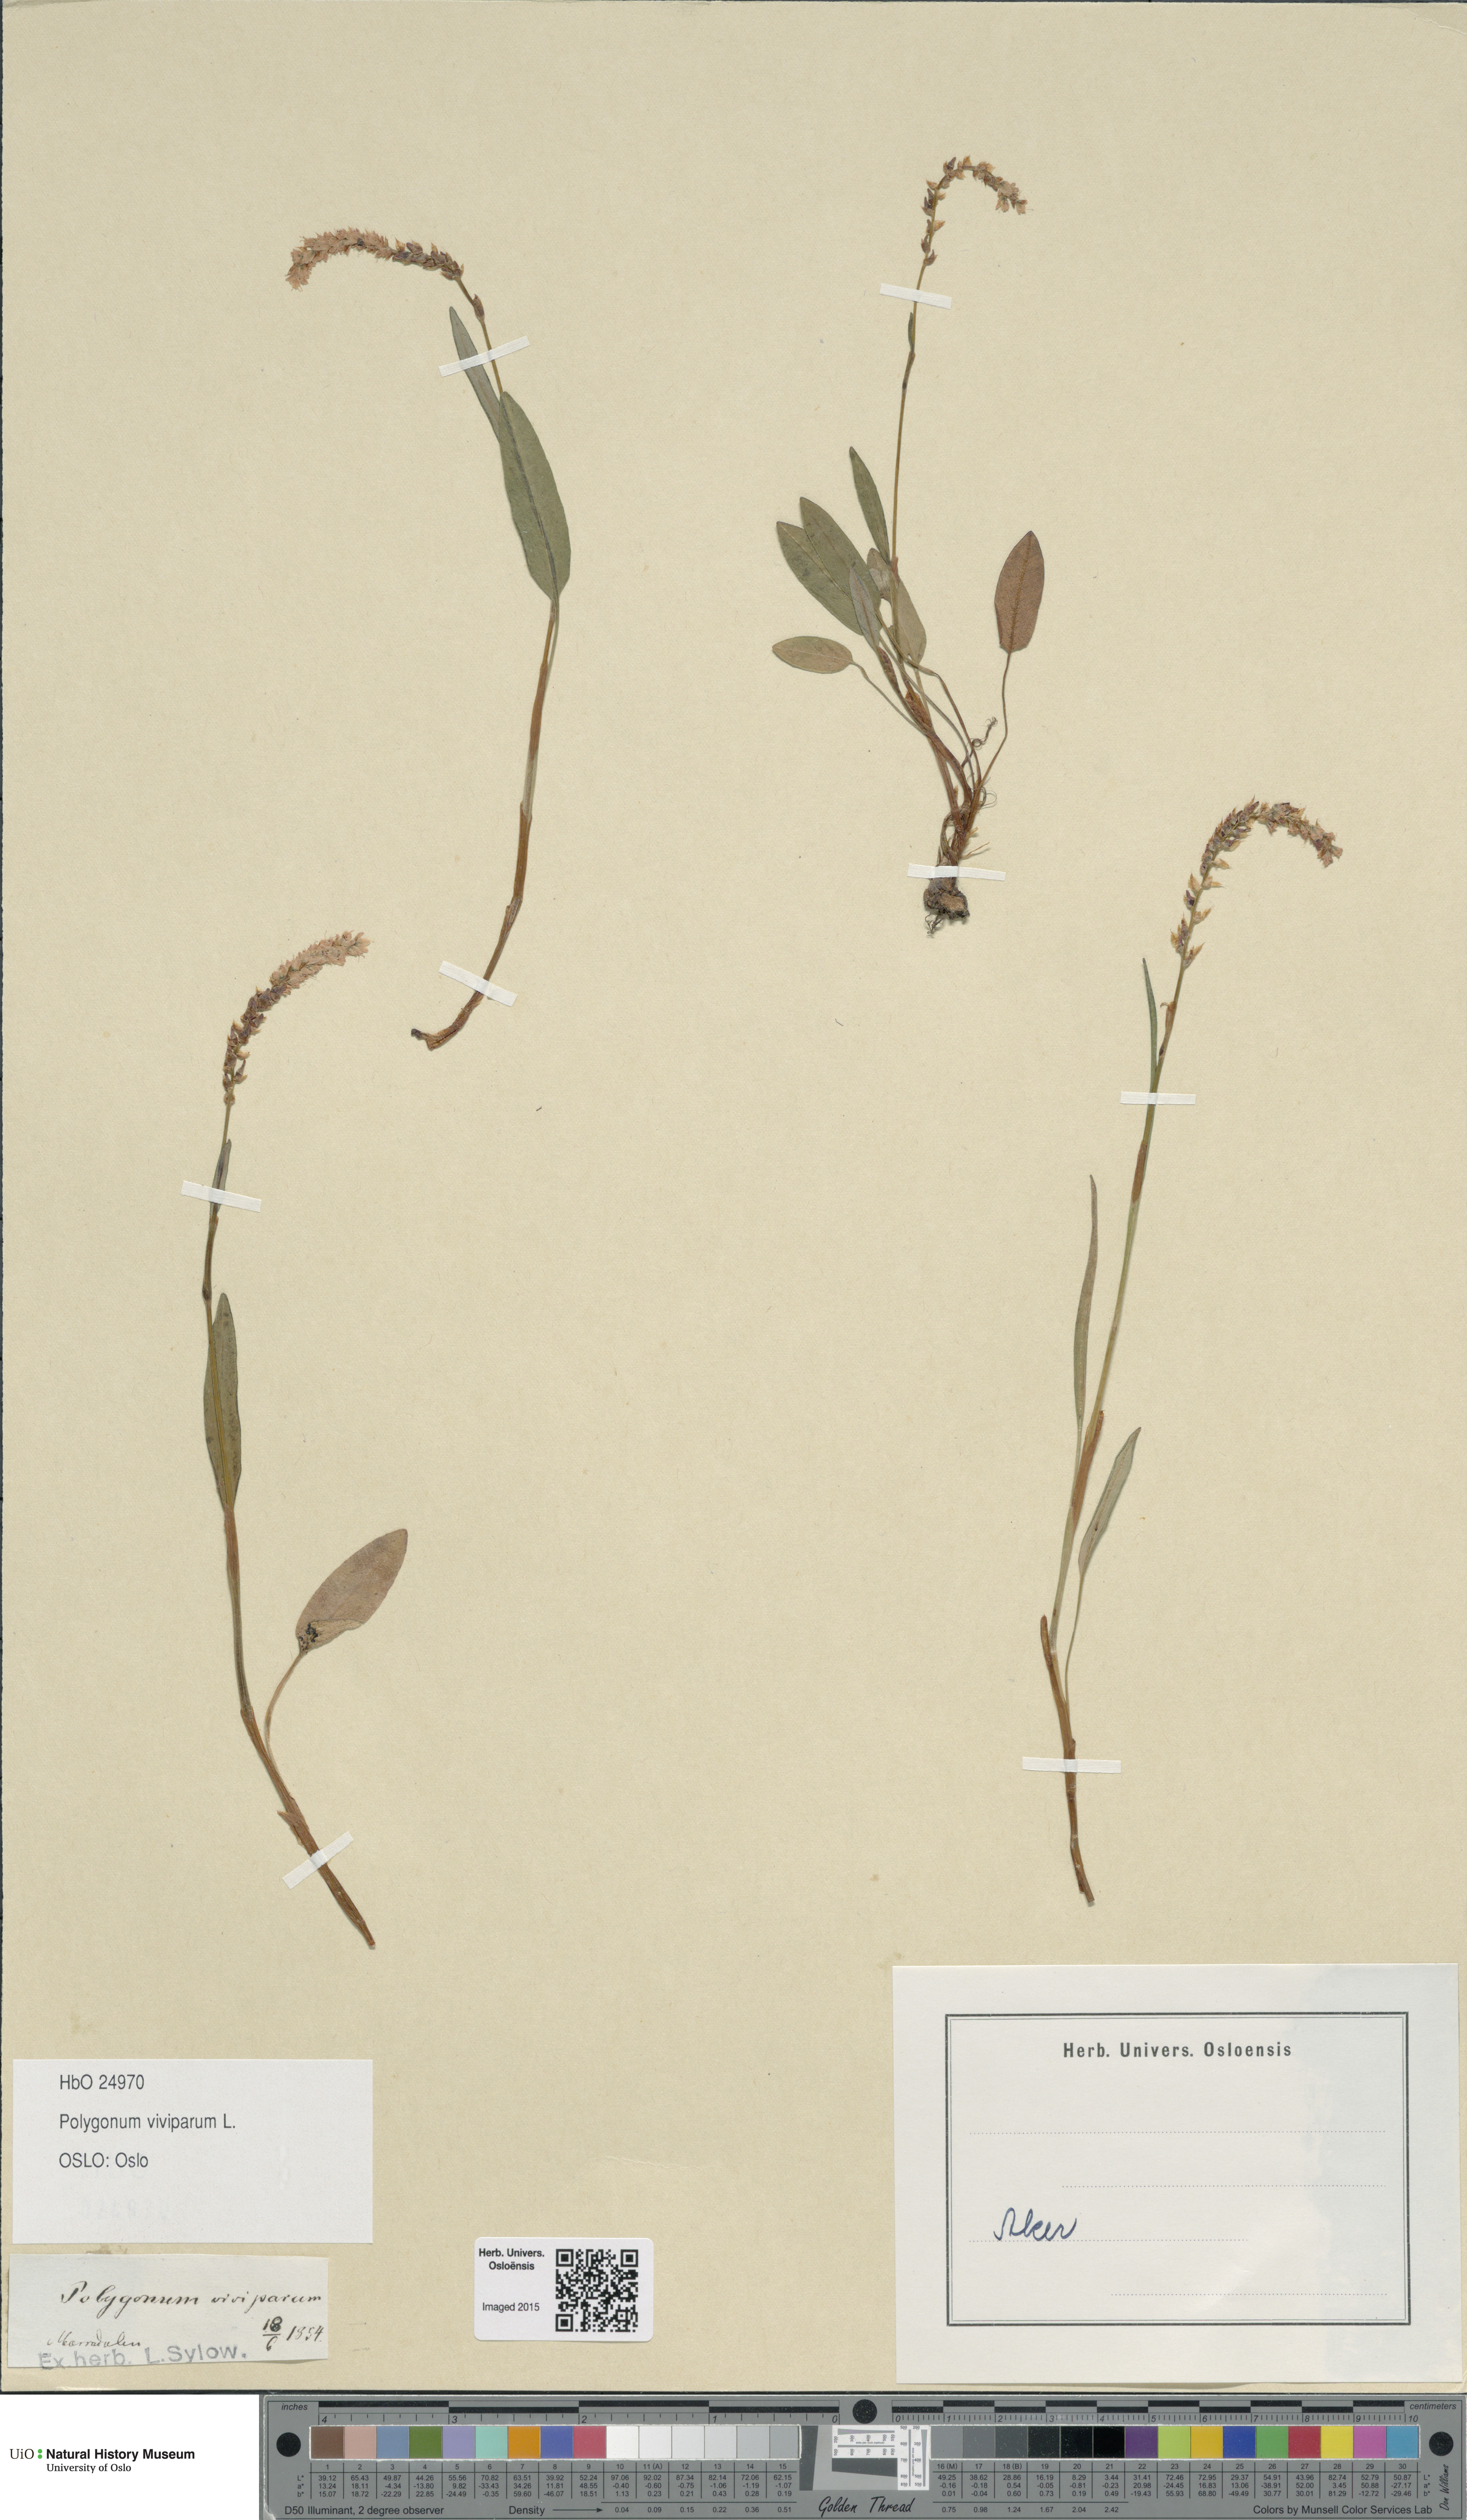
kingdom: Plantae
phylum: Tracheophyta
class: Magnoliopsida
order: Caryophyllales
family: Polygonaceae
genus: Bistorta
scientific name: Bistorta vivipara
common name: Alpine bistort
